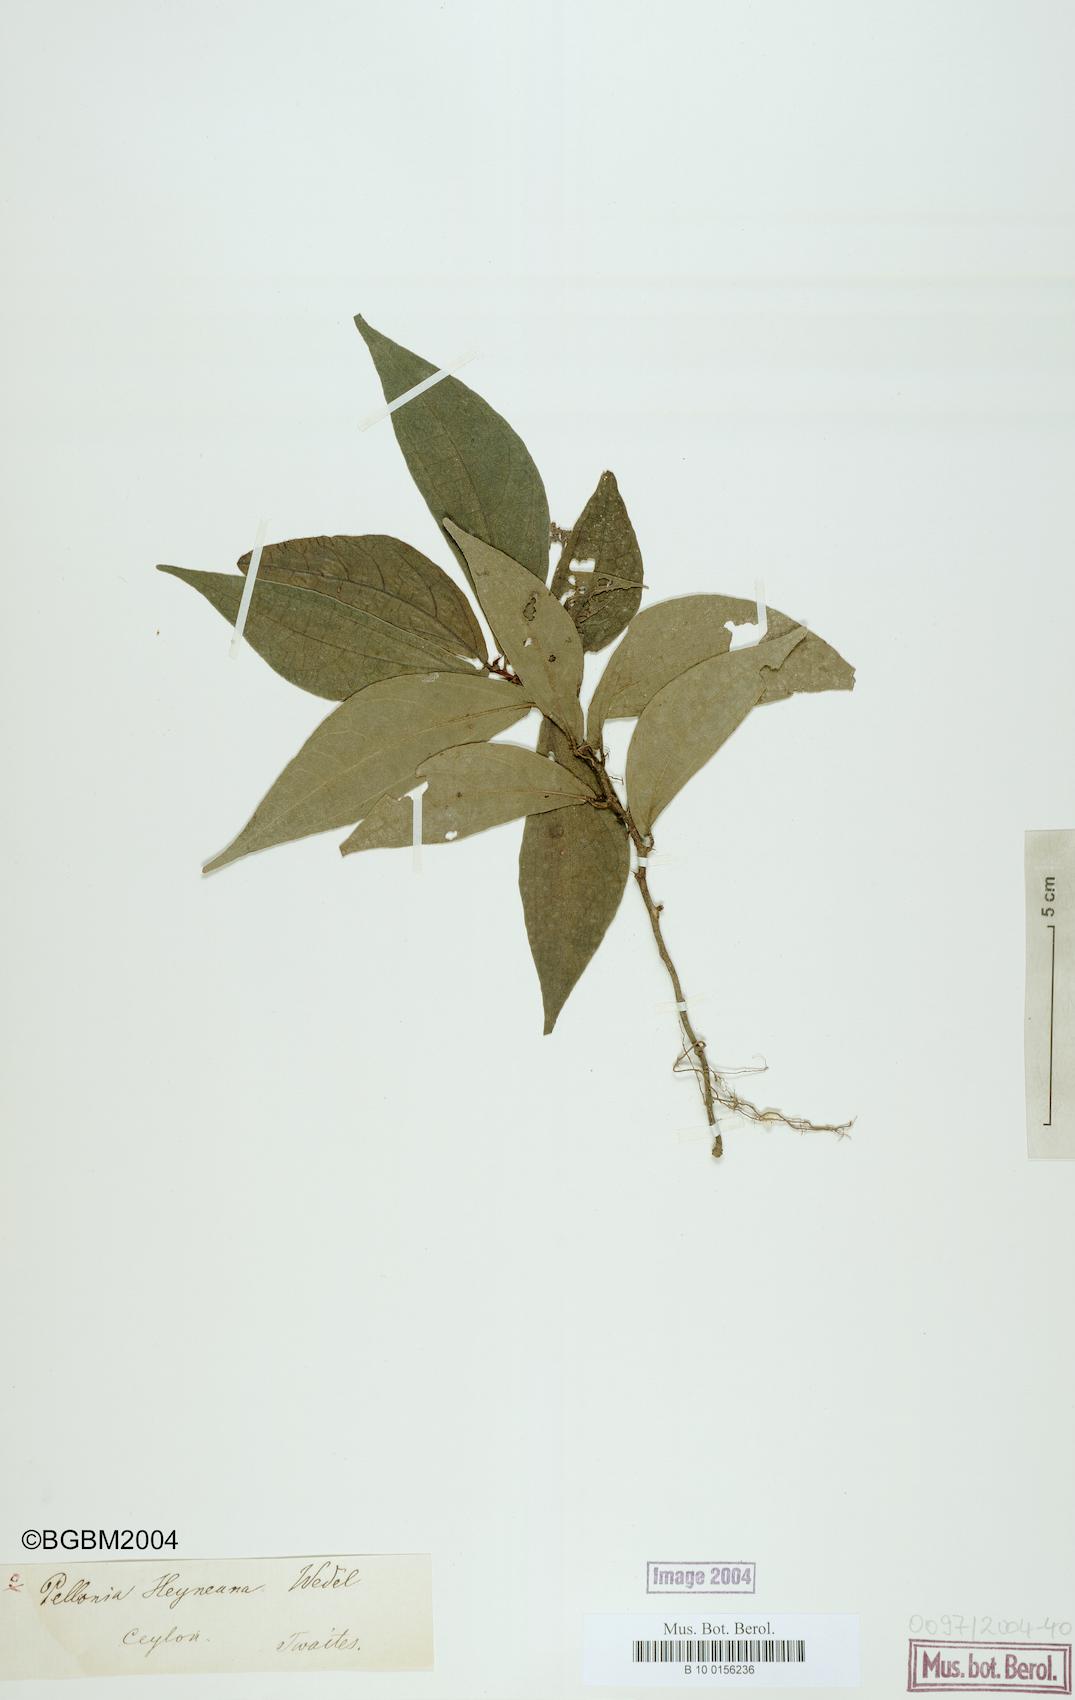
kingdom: Plantae
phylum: Tracheophyta
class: Magnoliopsida
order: Rosales
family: Urticaceae
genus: Elatostema
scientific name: Elatostema heyneanum
